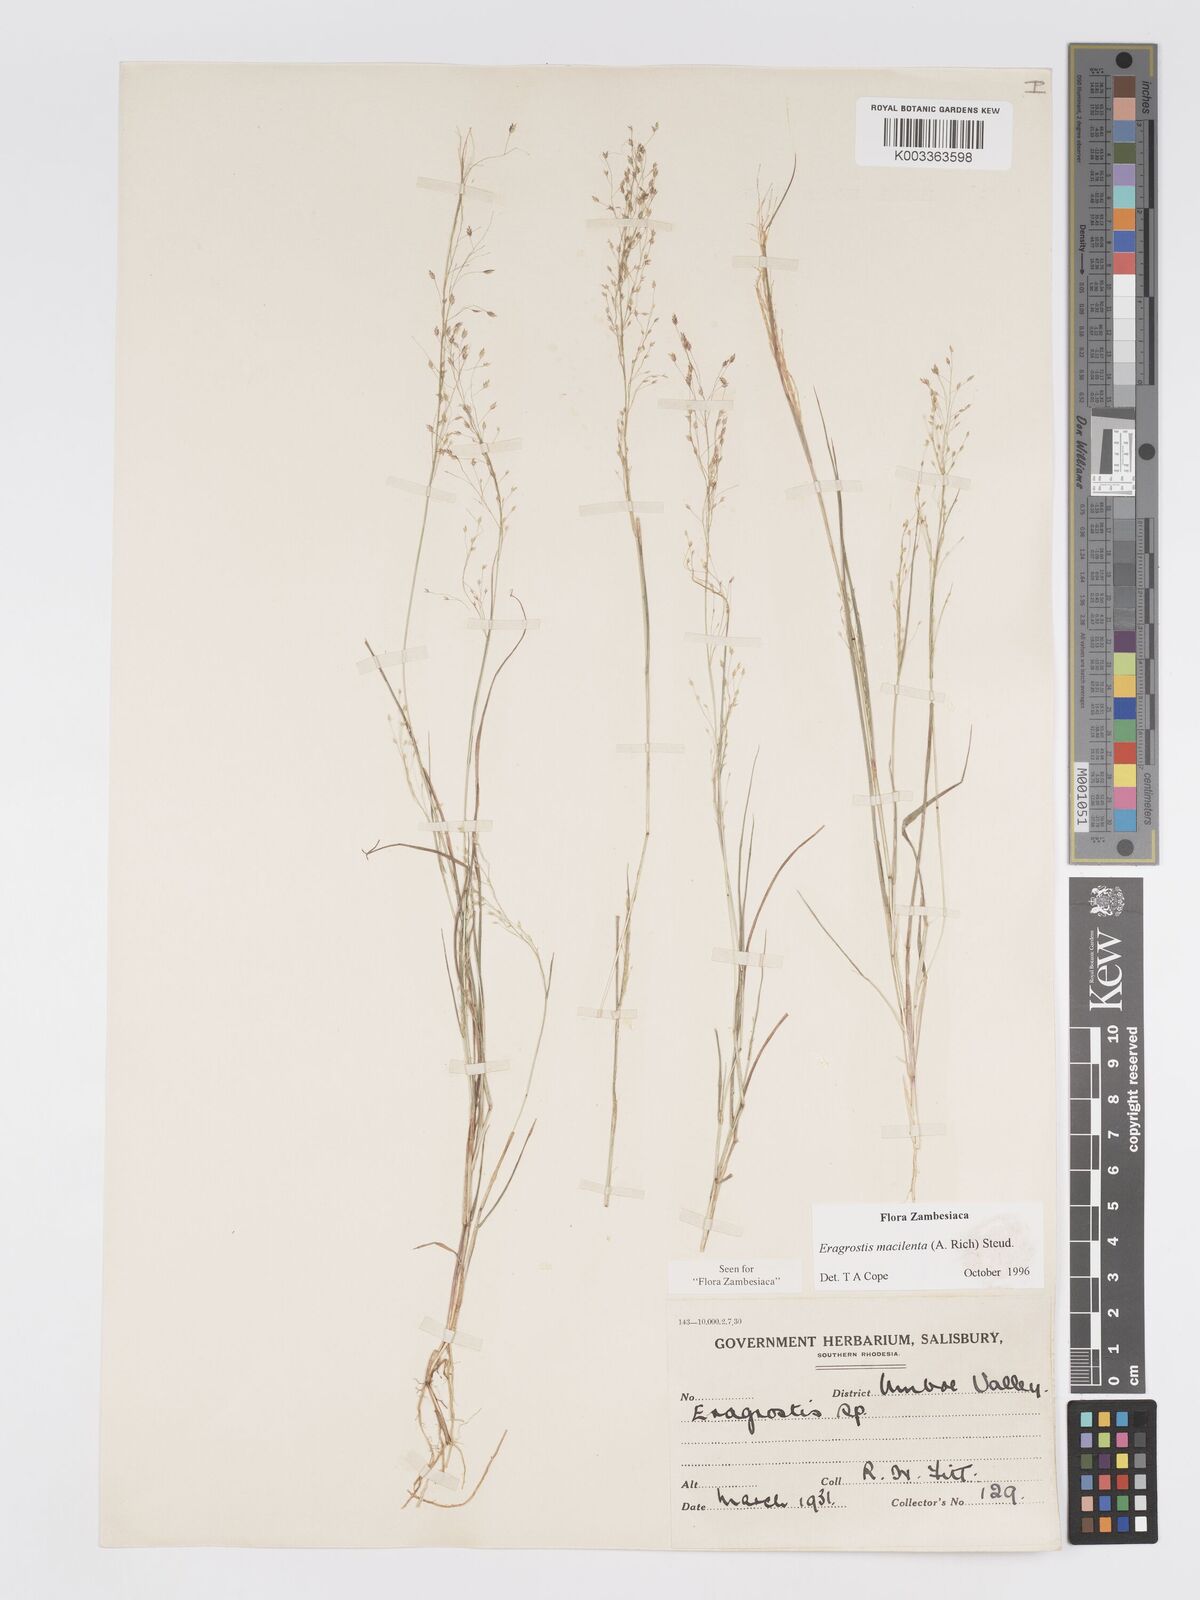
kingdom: Plantae
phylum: Tracheophyta
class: Liliopsida
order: Poales
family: Poaceae
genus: Eragrostis
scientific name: Eragrostis macilenta
